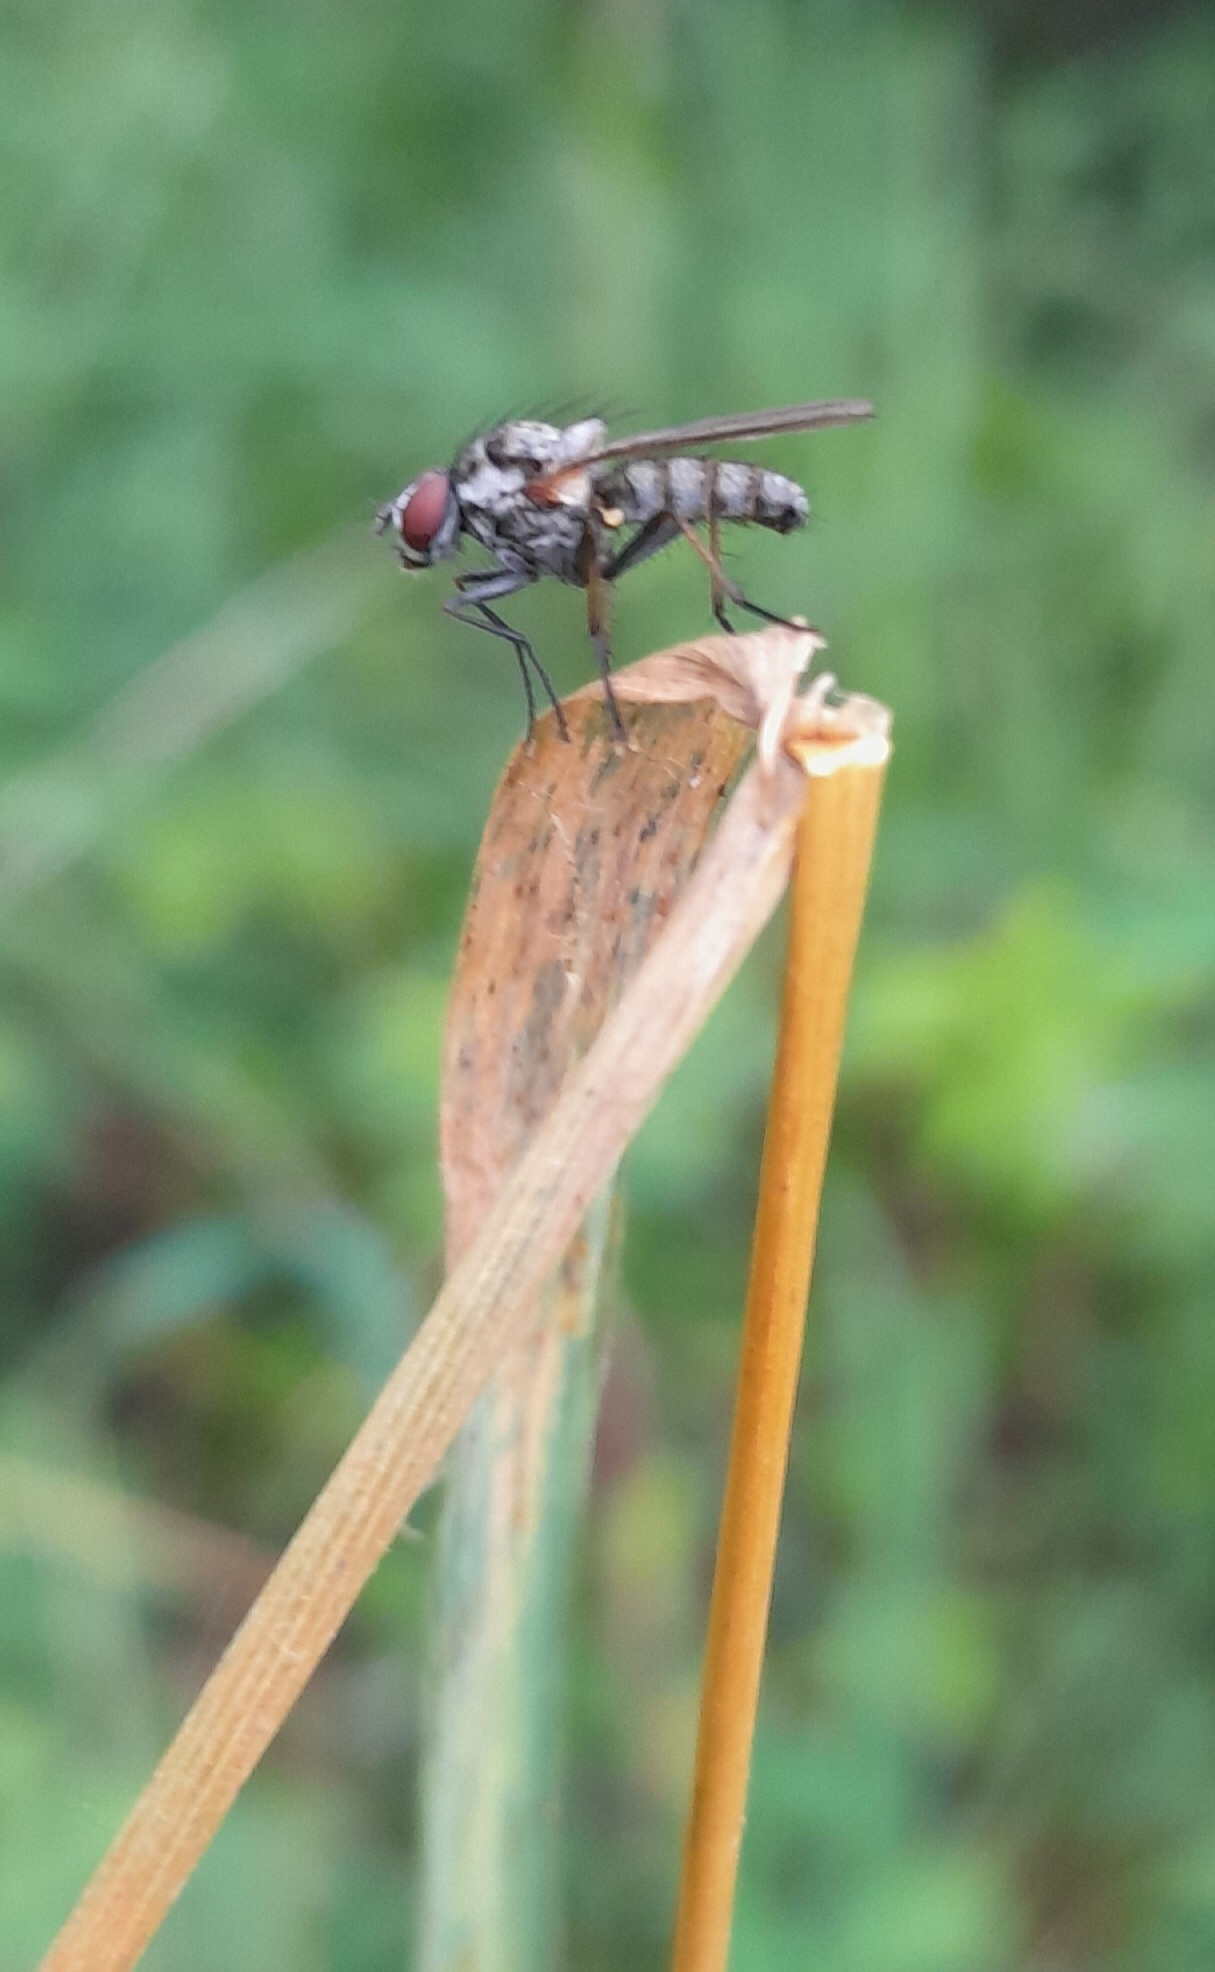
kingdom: Animalia
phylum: Arthropoda
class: Insecta
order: Diptera
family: Anthomyiidae
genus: Hylemya
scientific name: Hylemya
